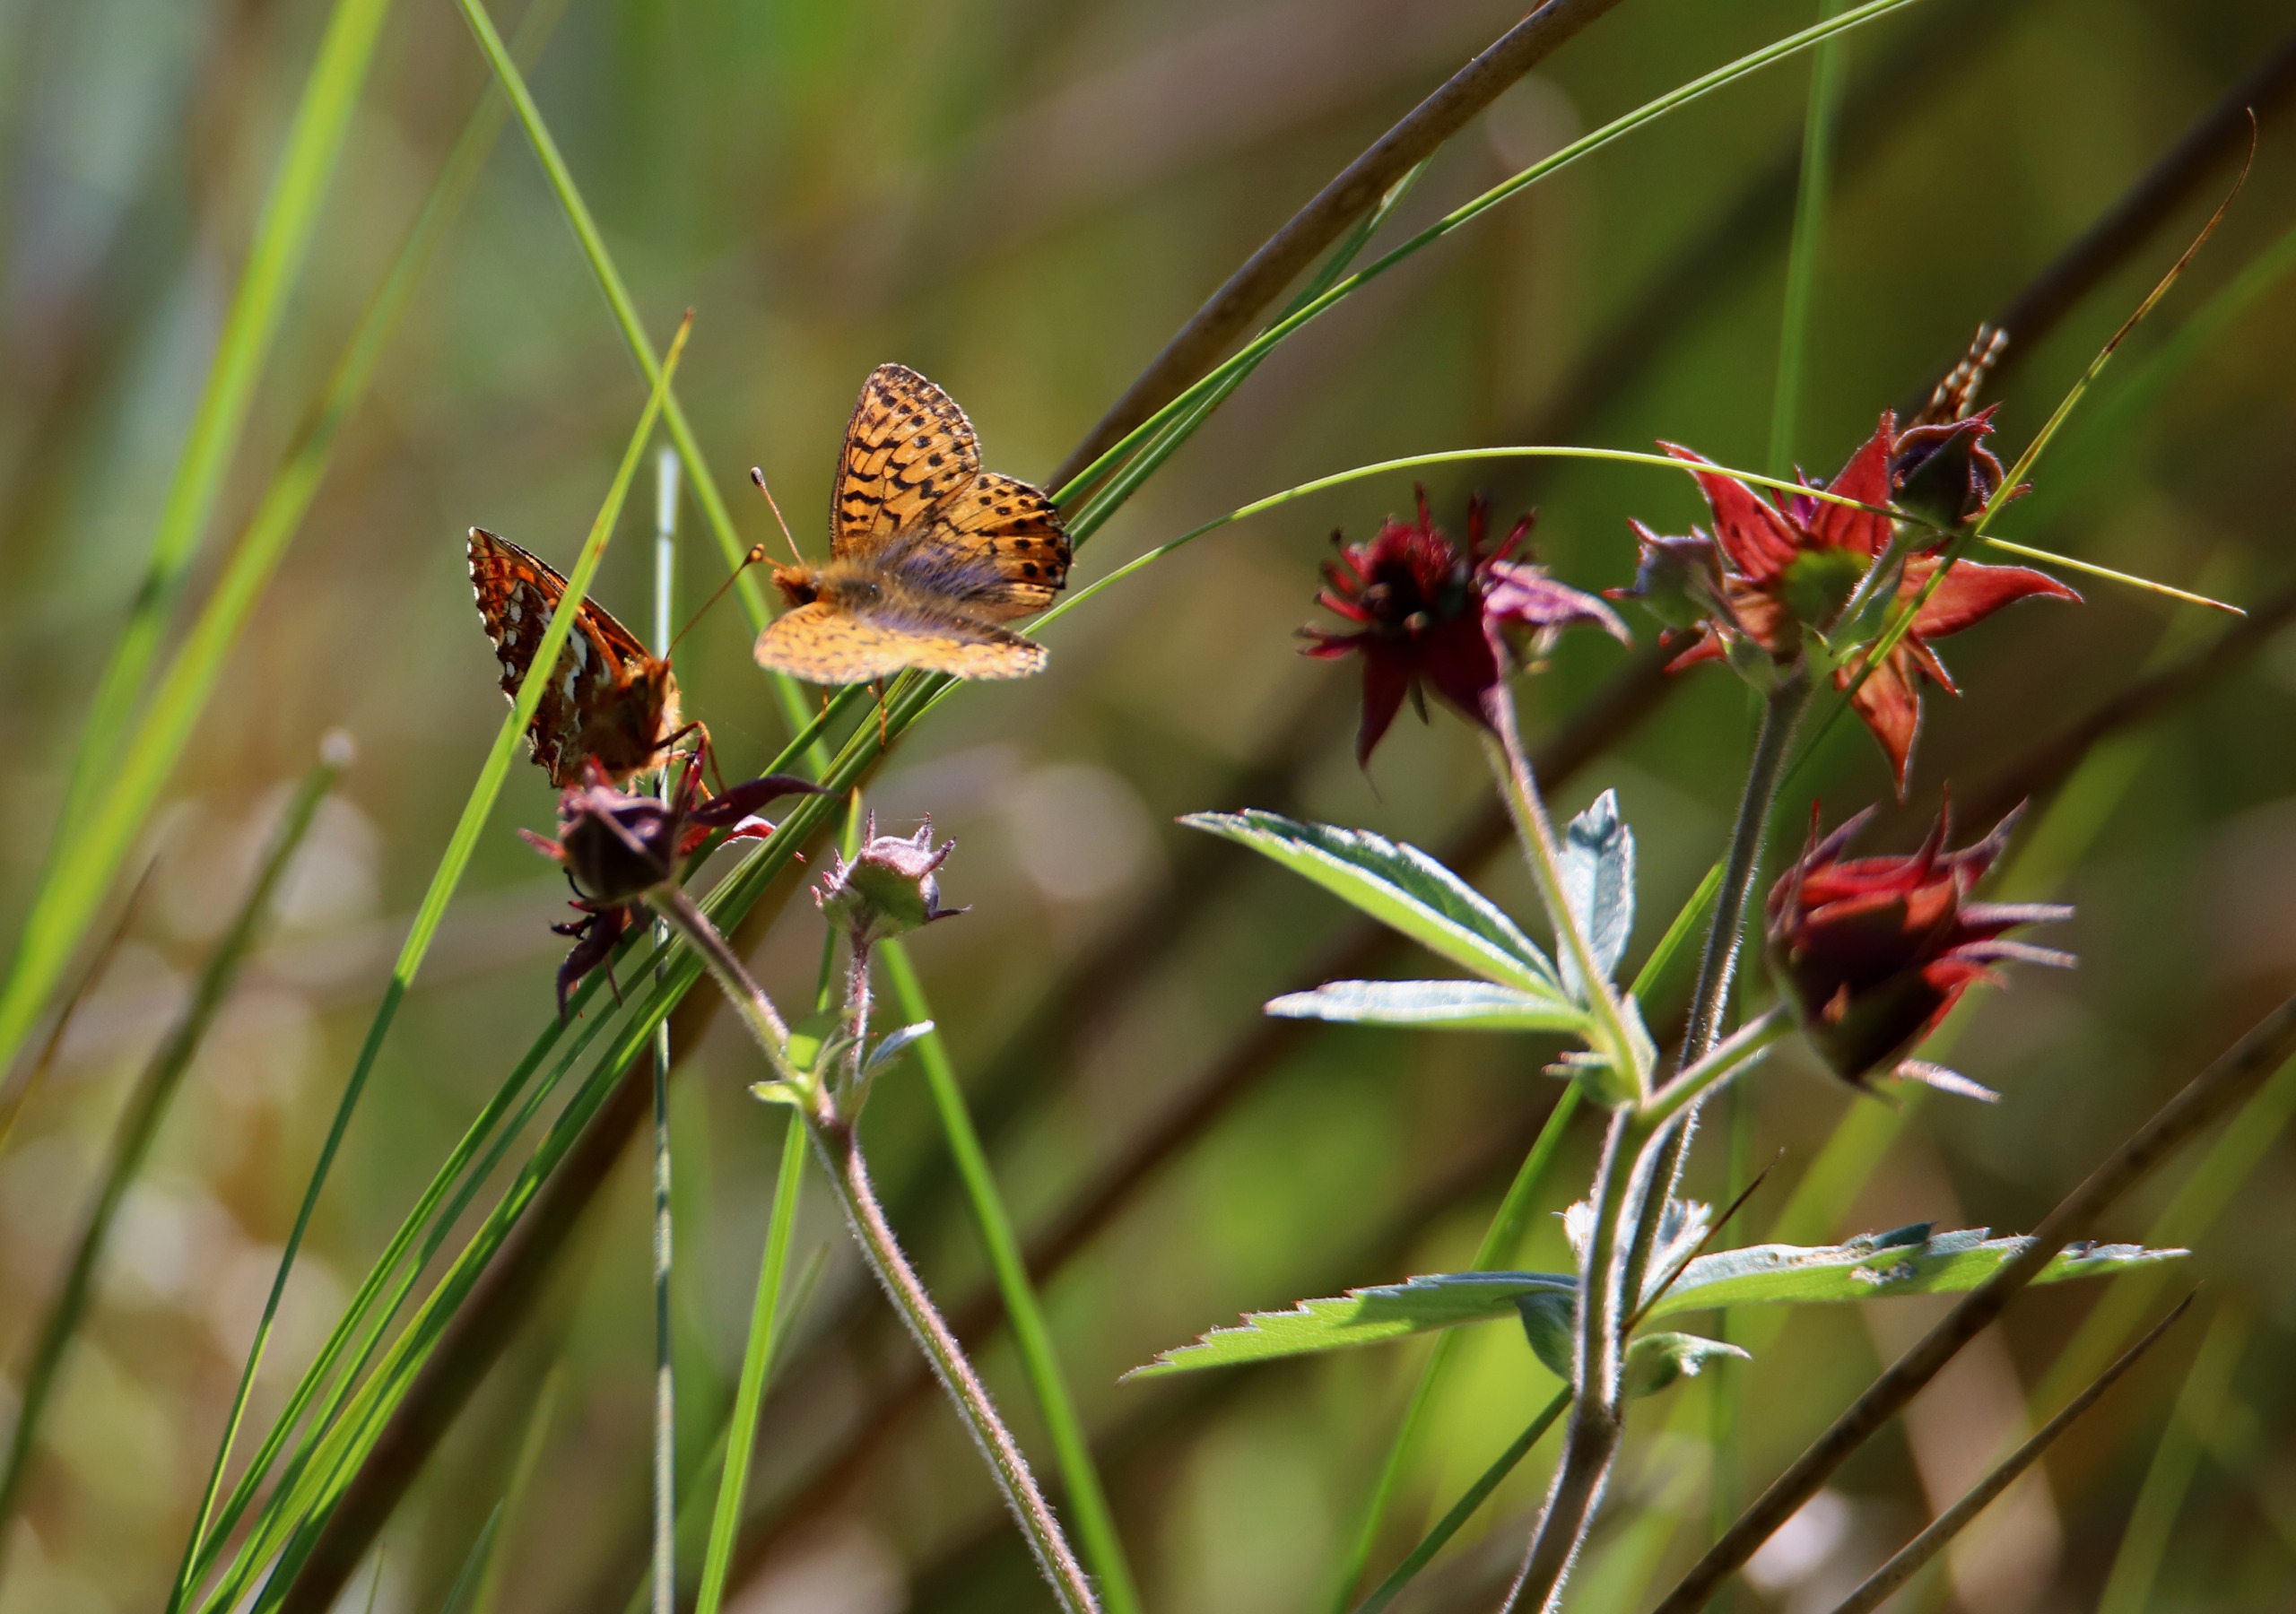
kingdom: Animalia
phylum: Arthropoda
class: Insecta
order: Lepidoptera
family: Nymphalidae
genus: Boloria
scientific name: Boloria aquilonaris
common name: Moseperlemorsommerfugl
